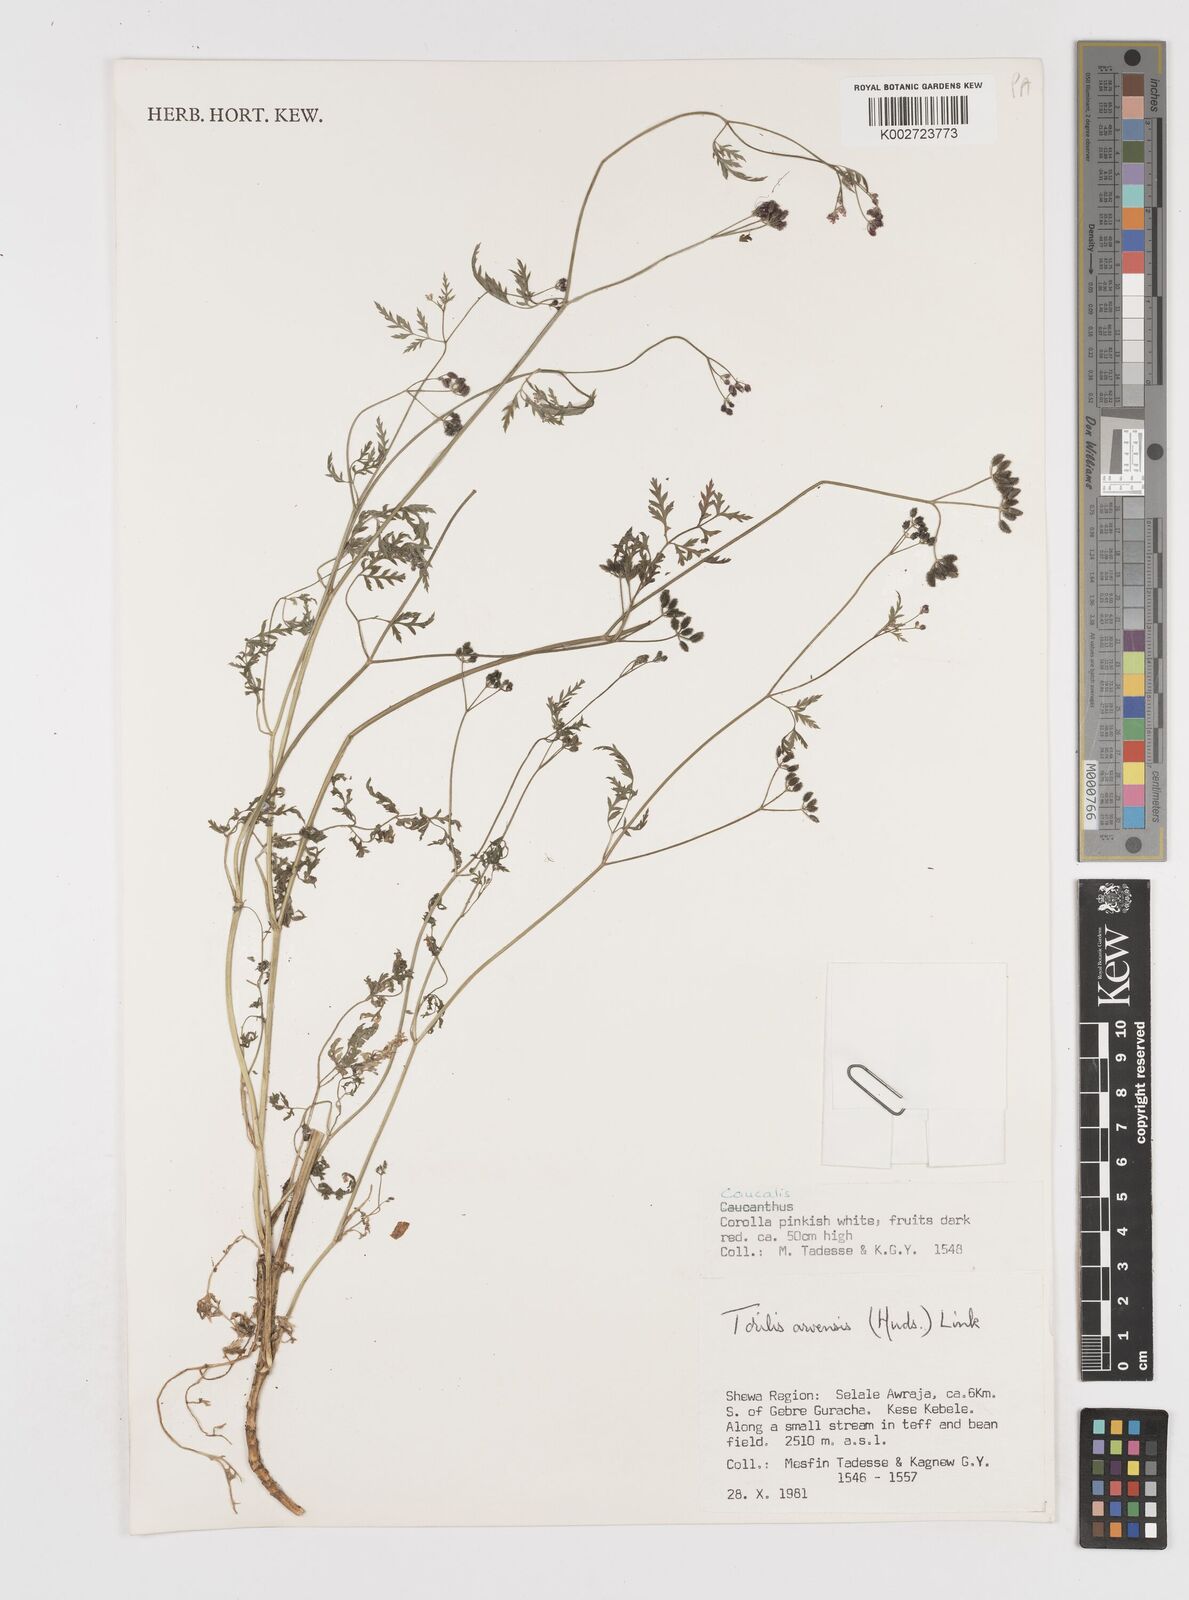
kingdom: Plantae
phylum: Tracheophyta
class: Magnoliopsida
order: Apiales
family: Apiaceae
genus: Torilis
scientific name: Torilis arvensis
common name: Spreading hedge-parsley
